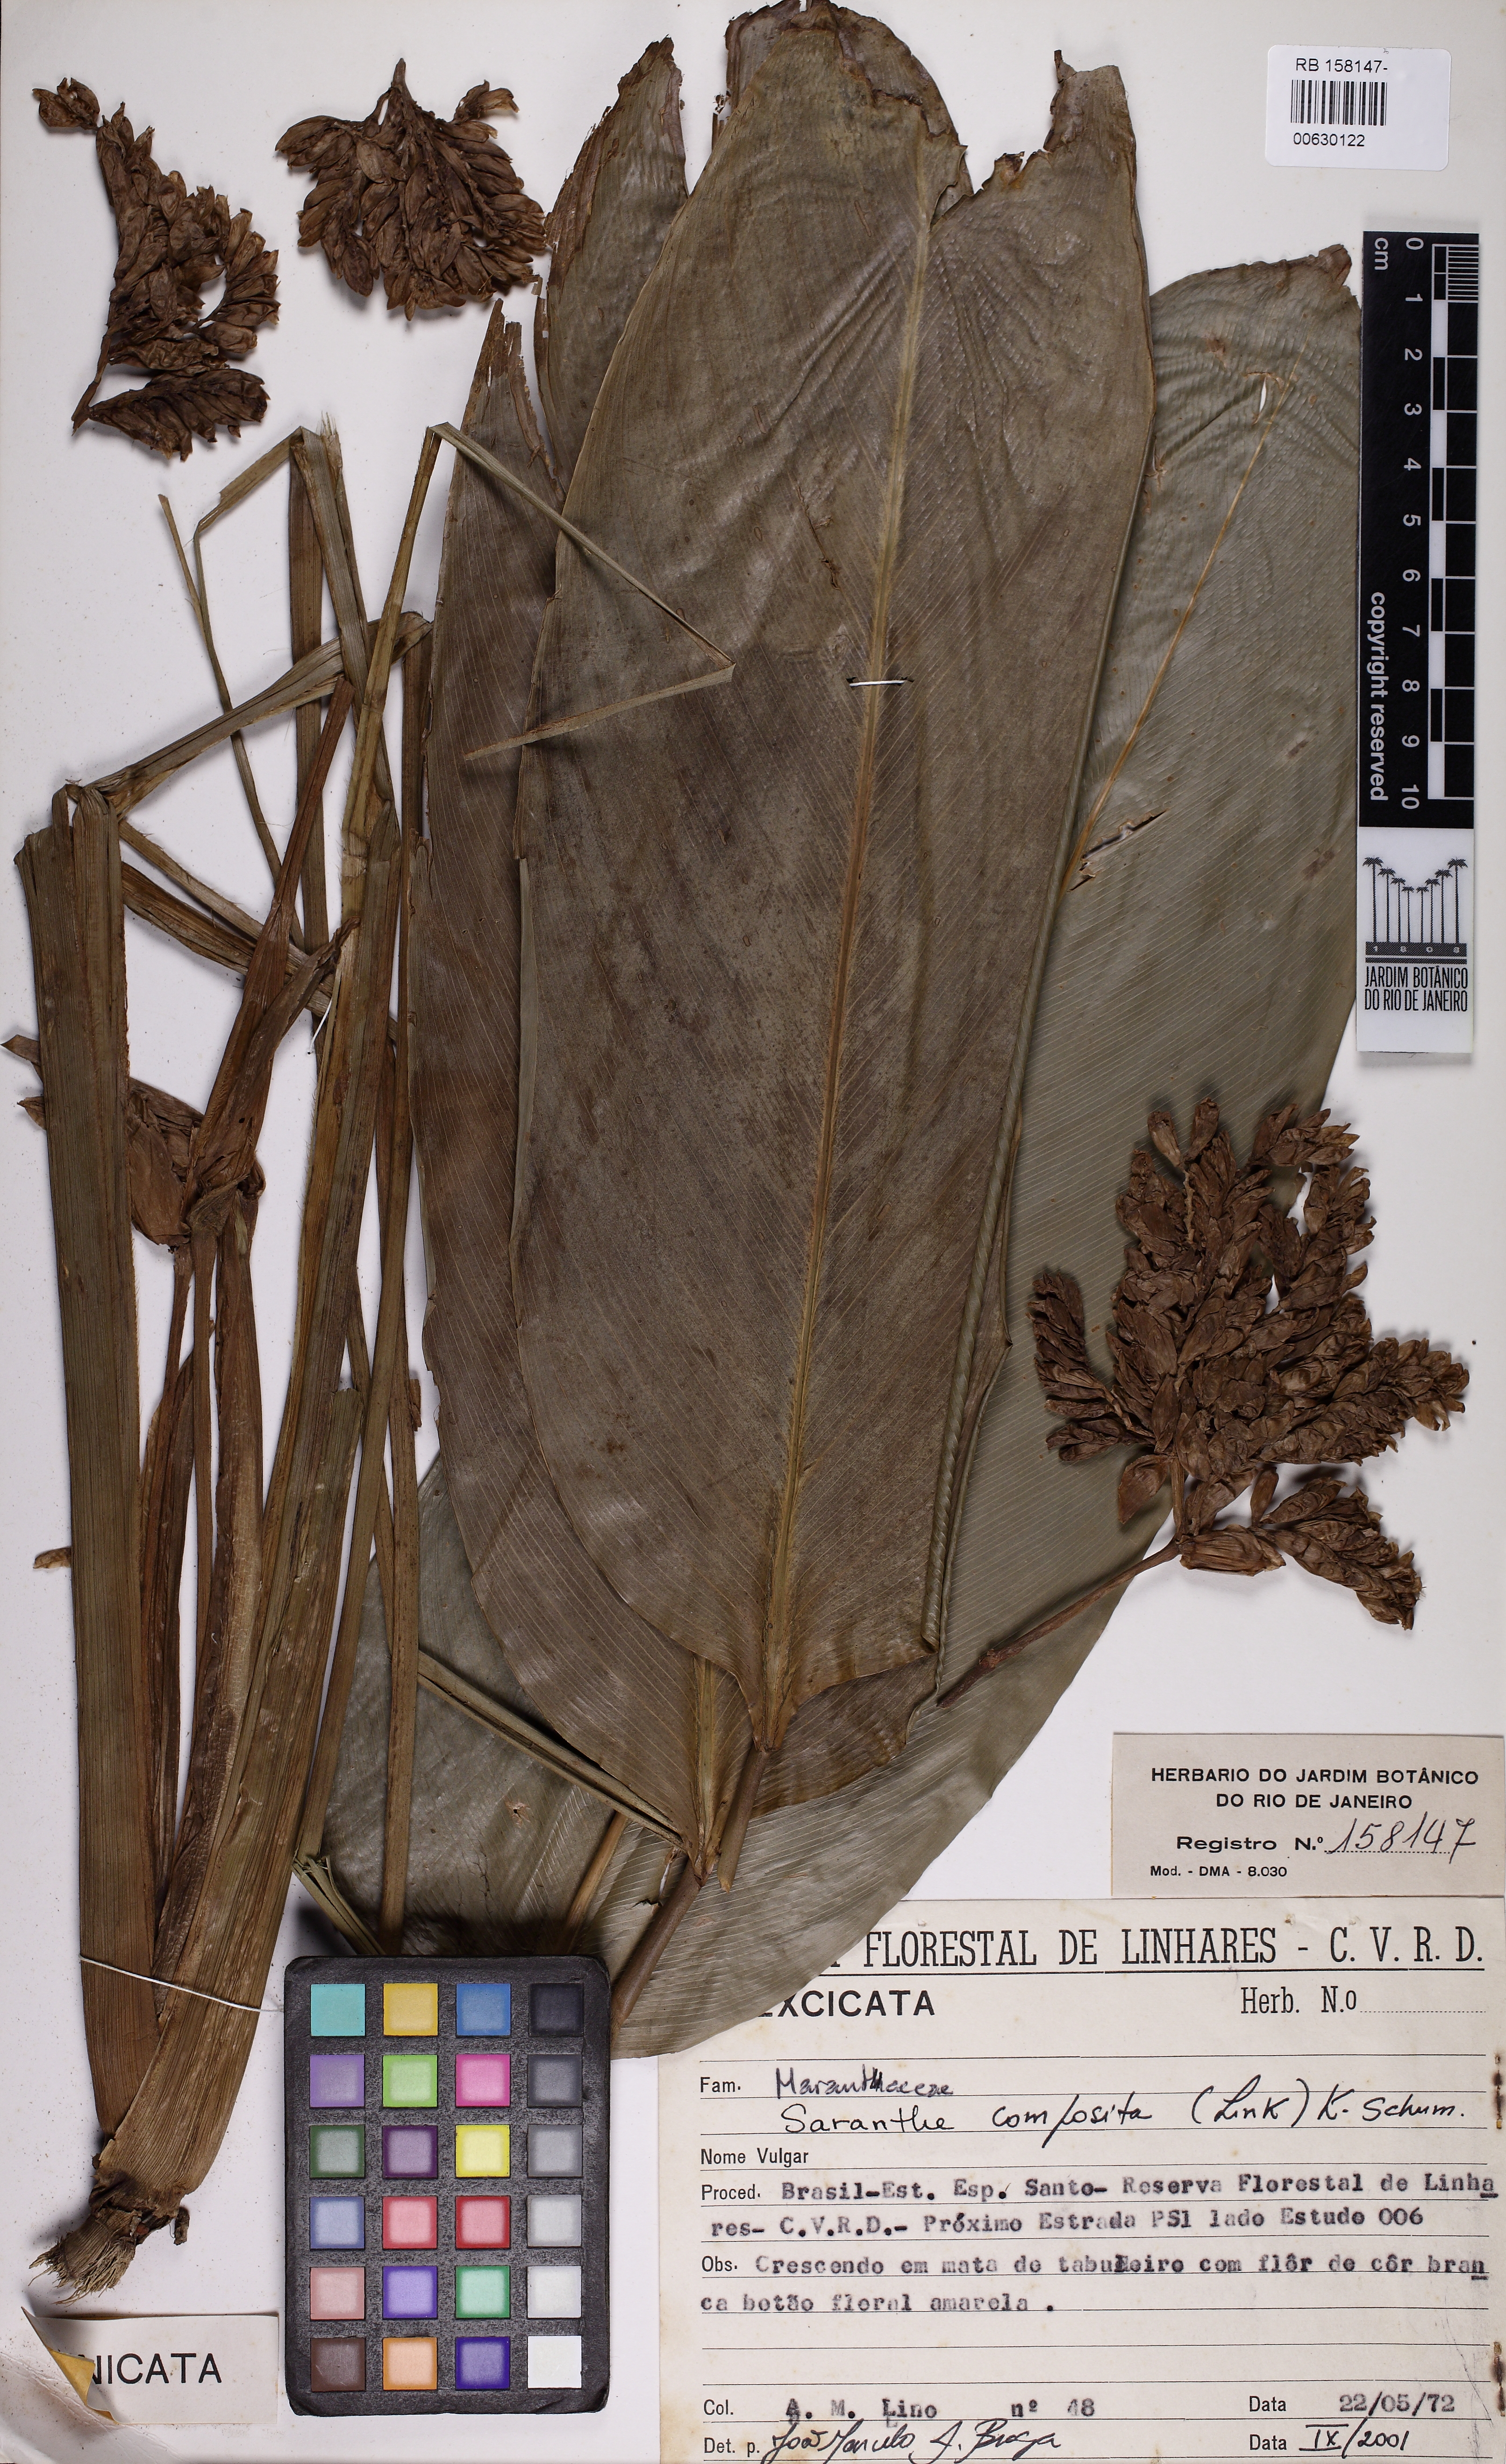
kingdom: Plantae
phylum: Tracheophyta
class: Liliopsida
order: Zingiberales
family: Marantaceae
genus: Saranthe
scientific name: Saranthe composita
